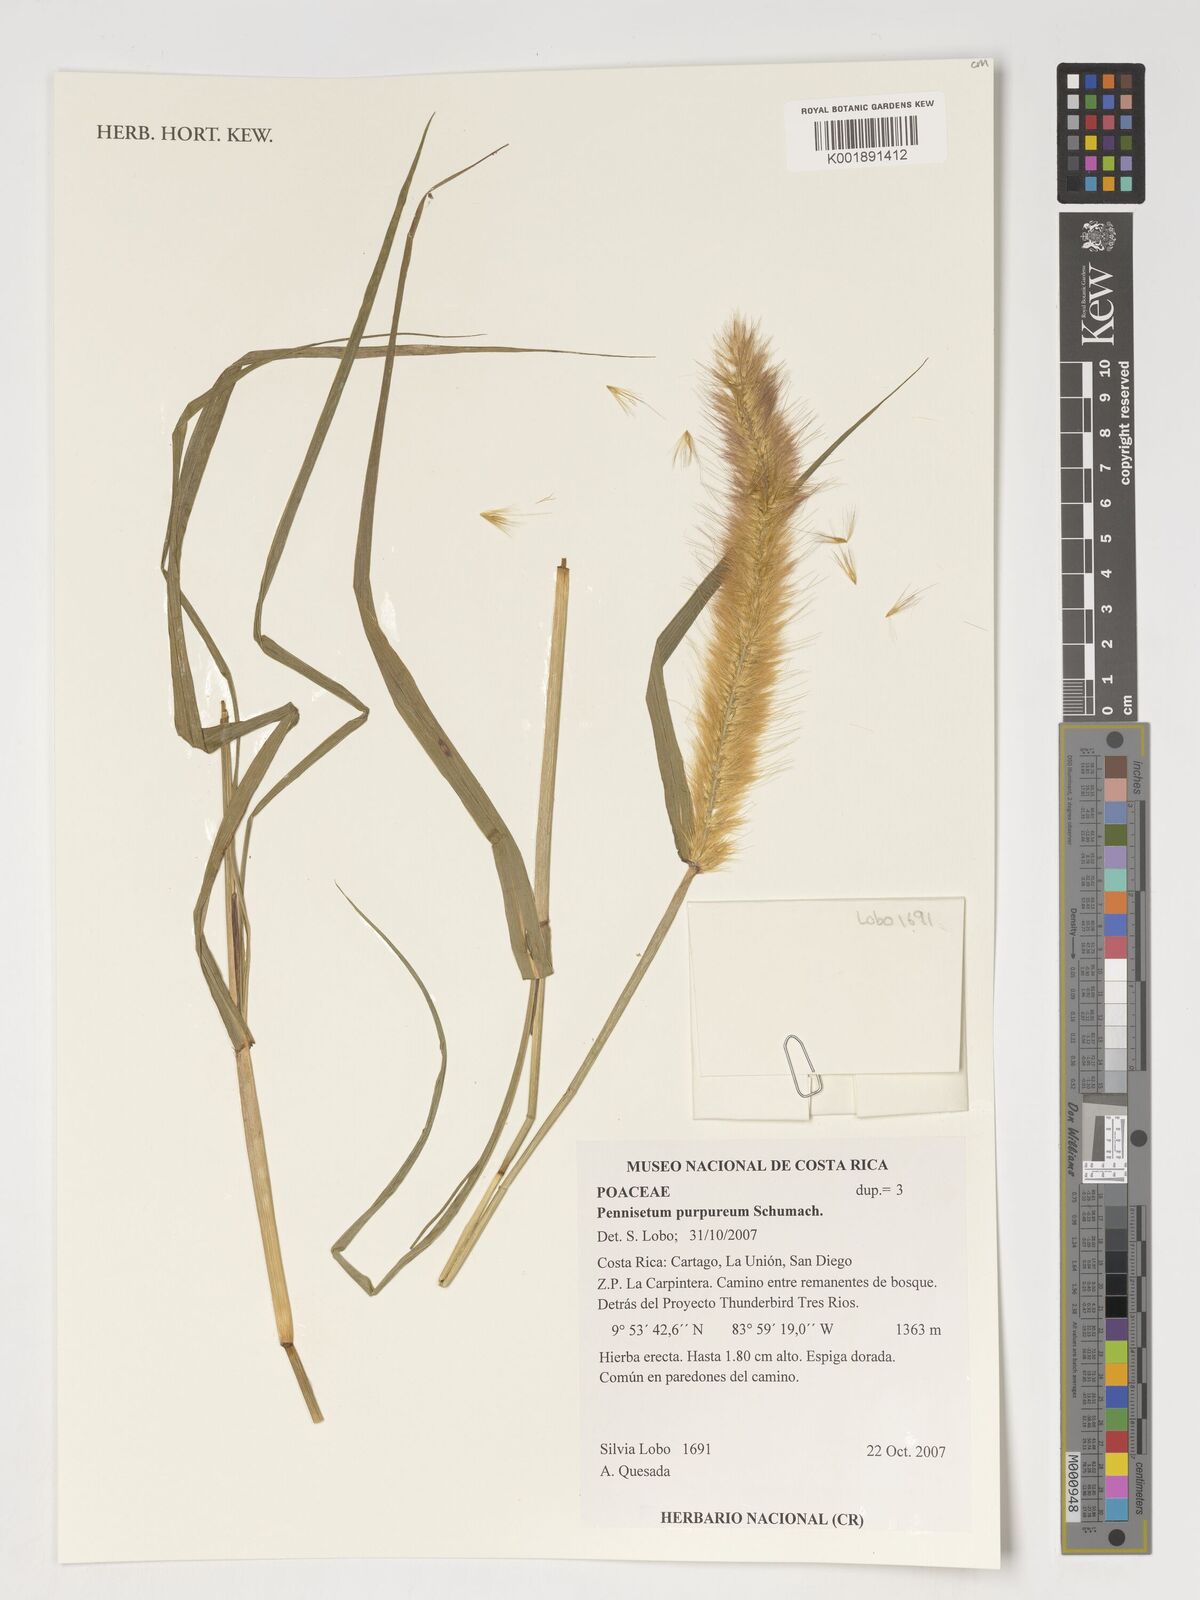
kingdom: Plantae
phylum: Tracheophyta
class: Liliopsida
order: Poales
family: Poaceae
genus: Cenchrus
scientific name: Cenchrus purpureus
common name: Elephant grass
